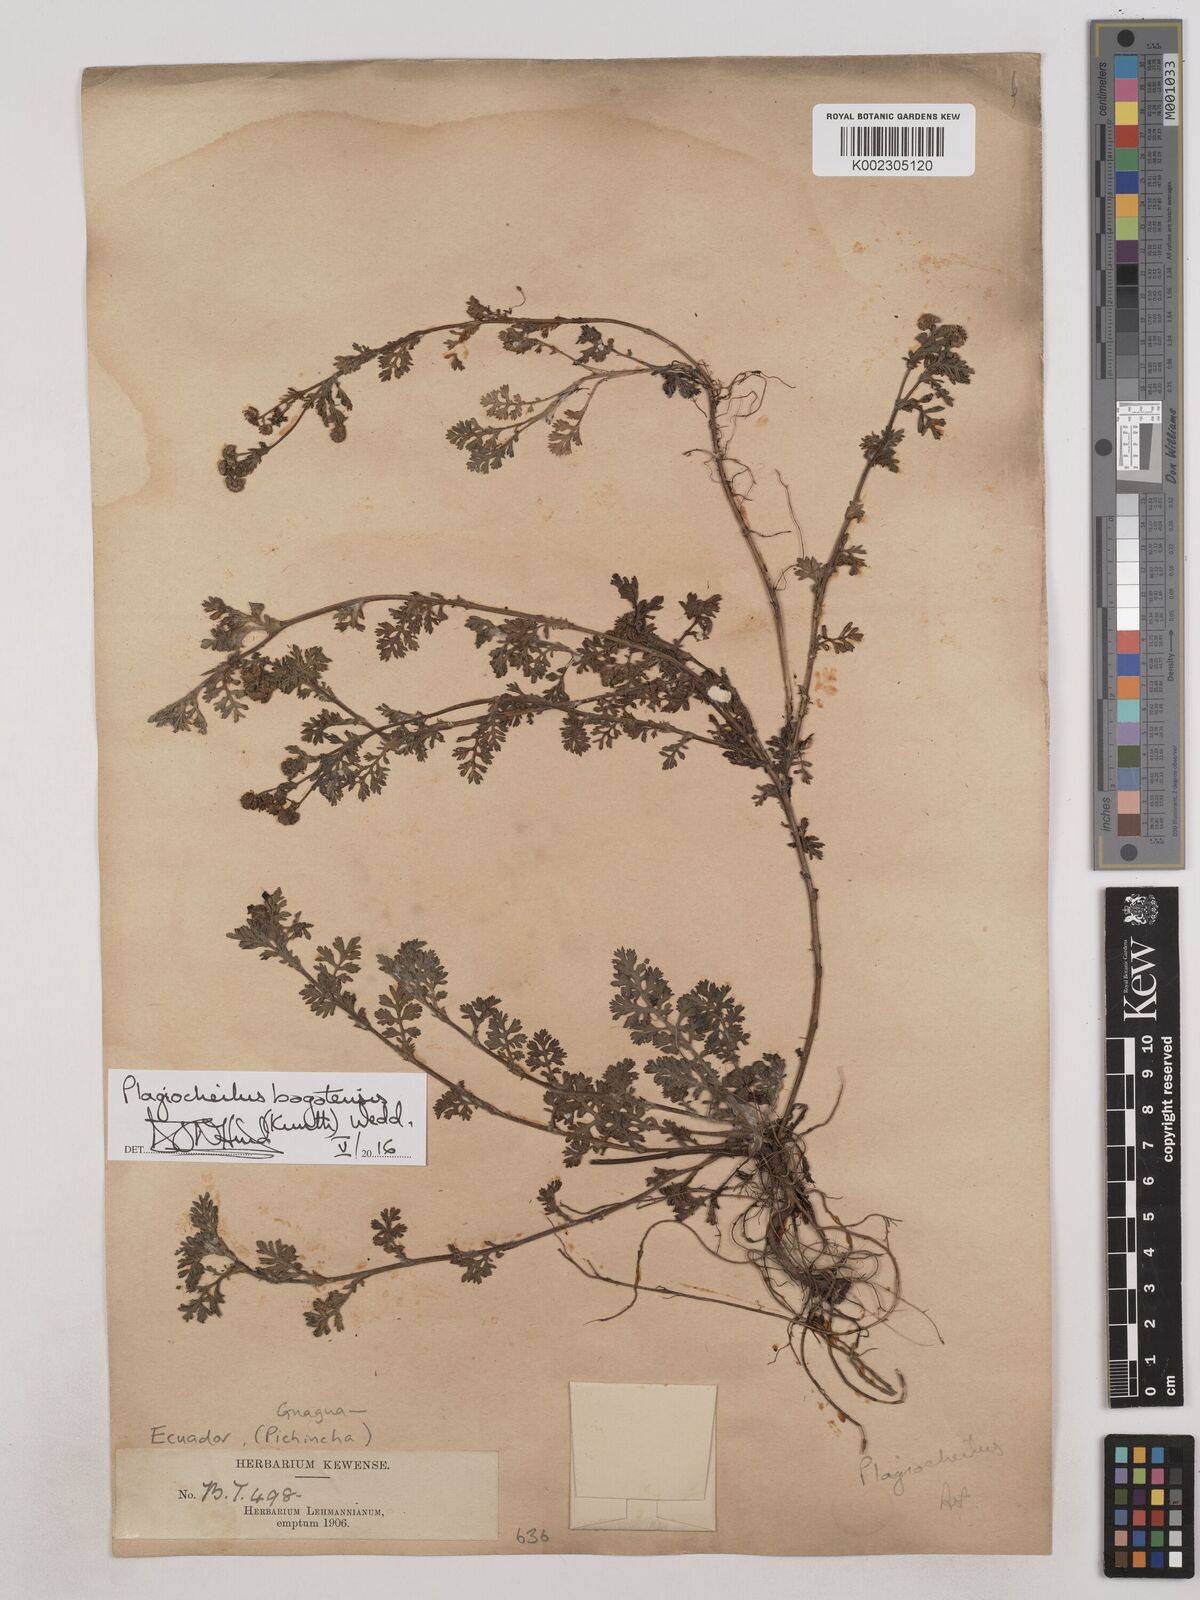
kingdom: Plantae
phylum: Tracheophyta
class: Magnoliopsida
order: Asterales
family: Asteraceae
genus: Plagiocheilus
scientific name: Plagiocheilus bogotensis
